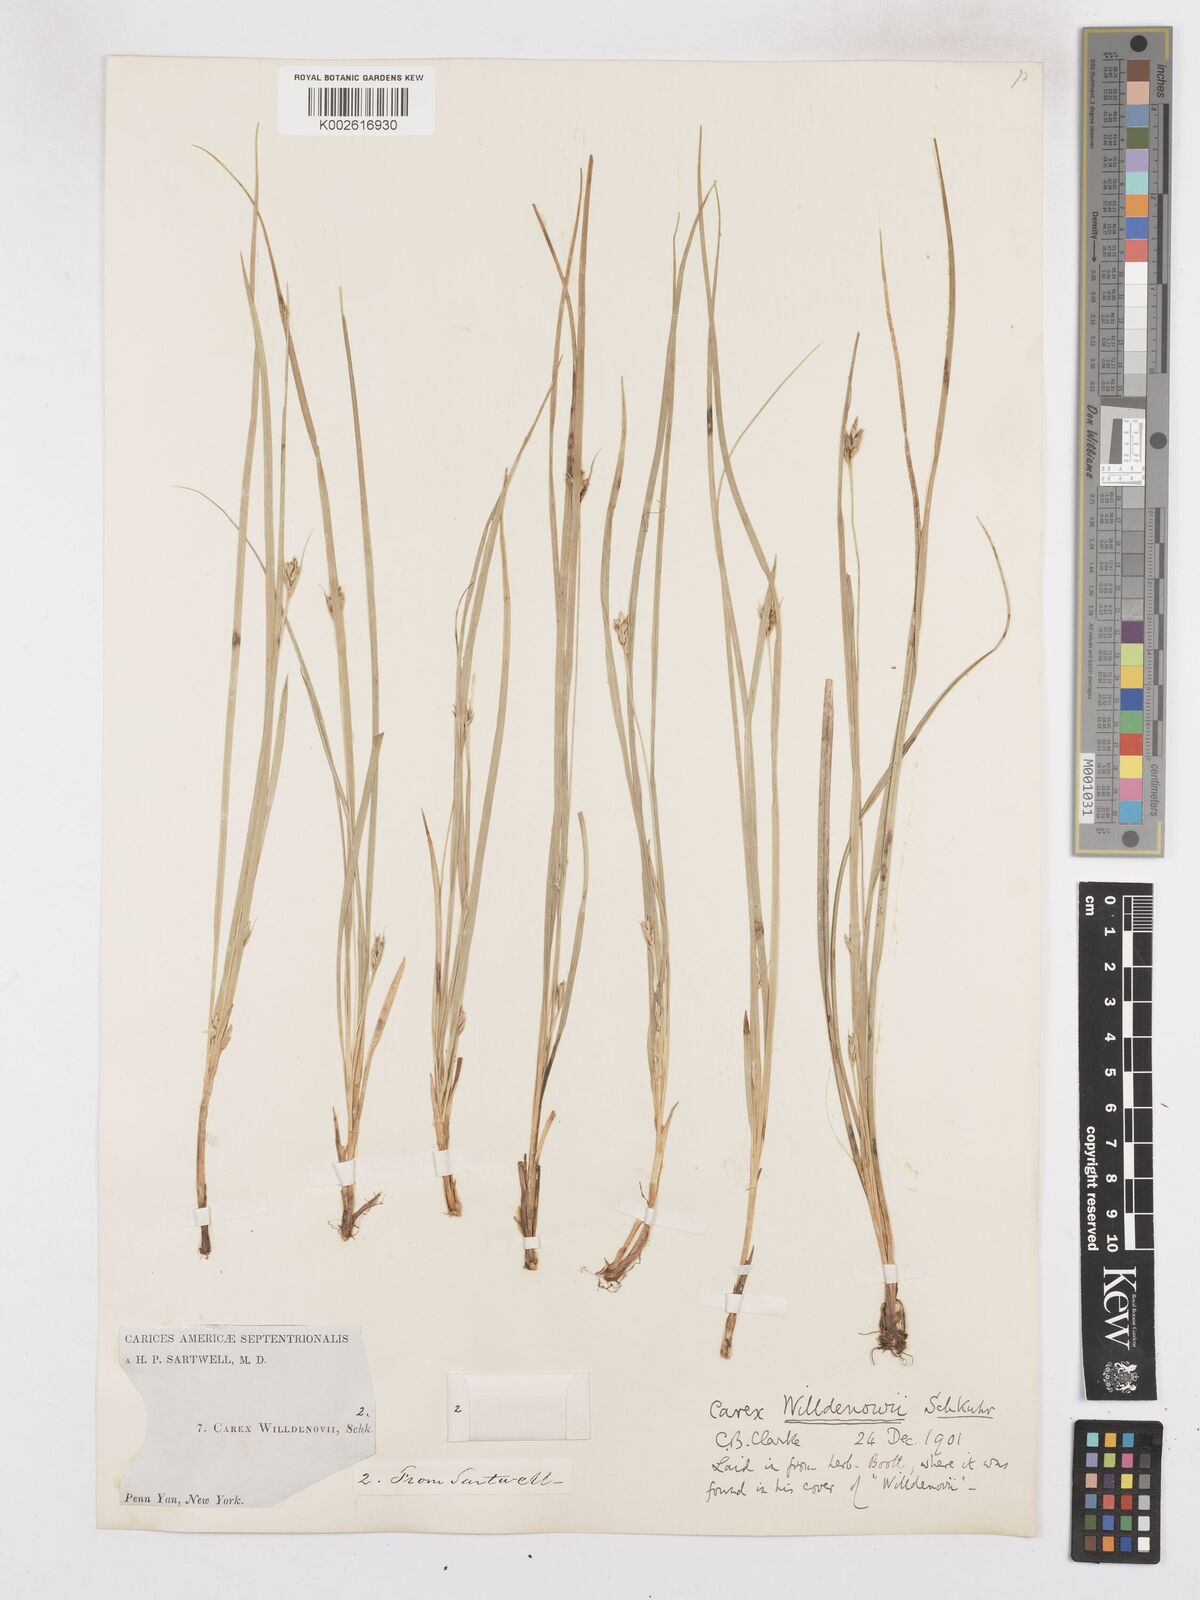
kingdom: Plantae
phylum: Tracheophyta
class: Liliopsida
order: Poales
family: Cyperaceae
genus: Carex
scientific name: Carex willdenowii
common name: Willdenow's sedge
